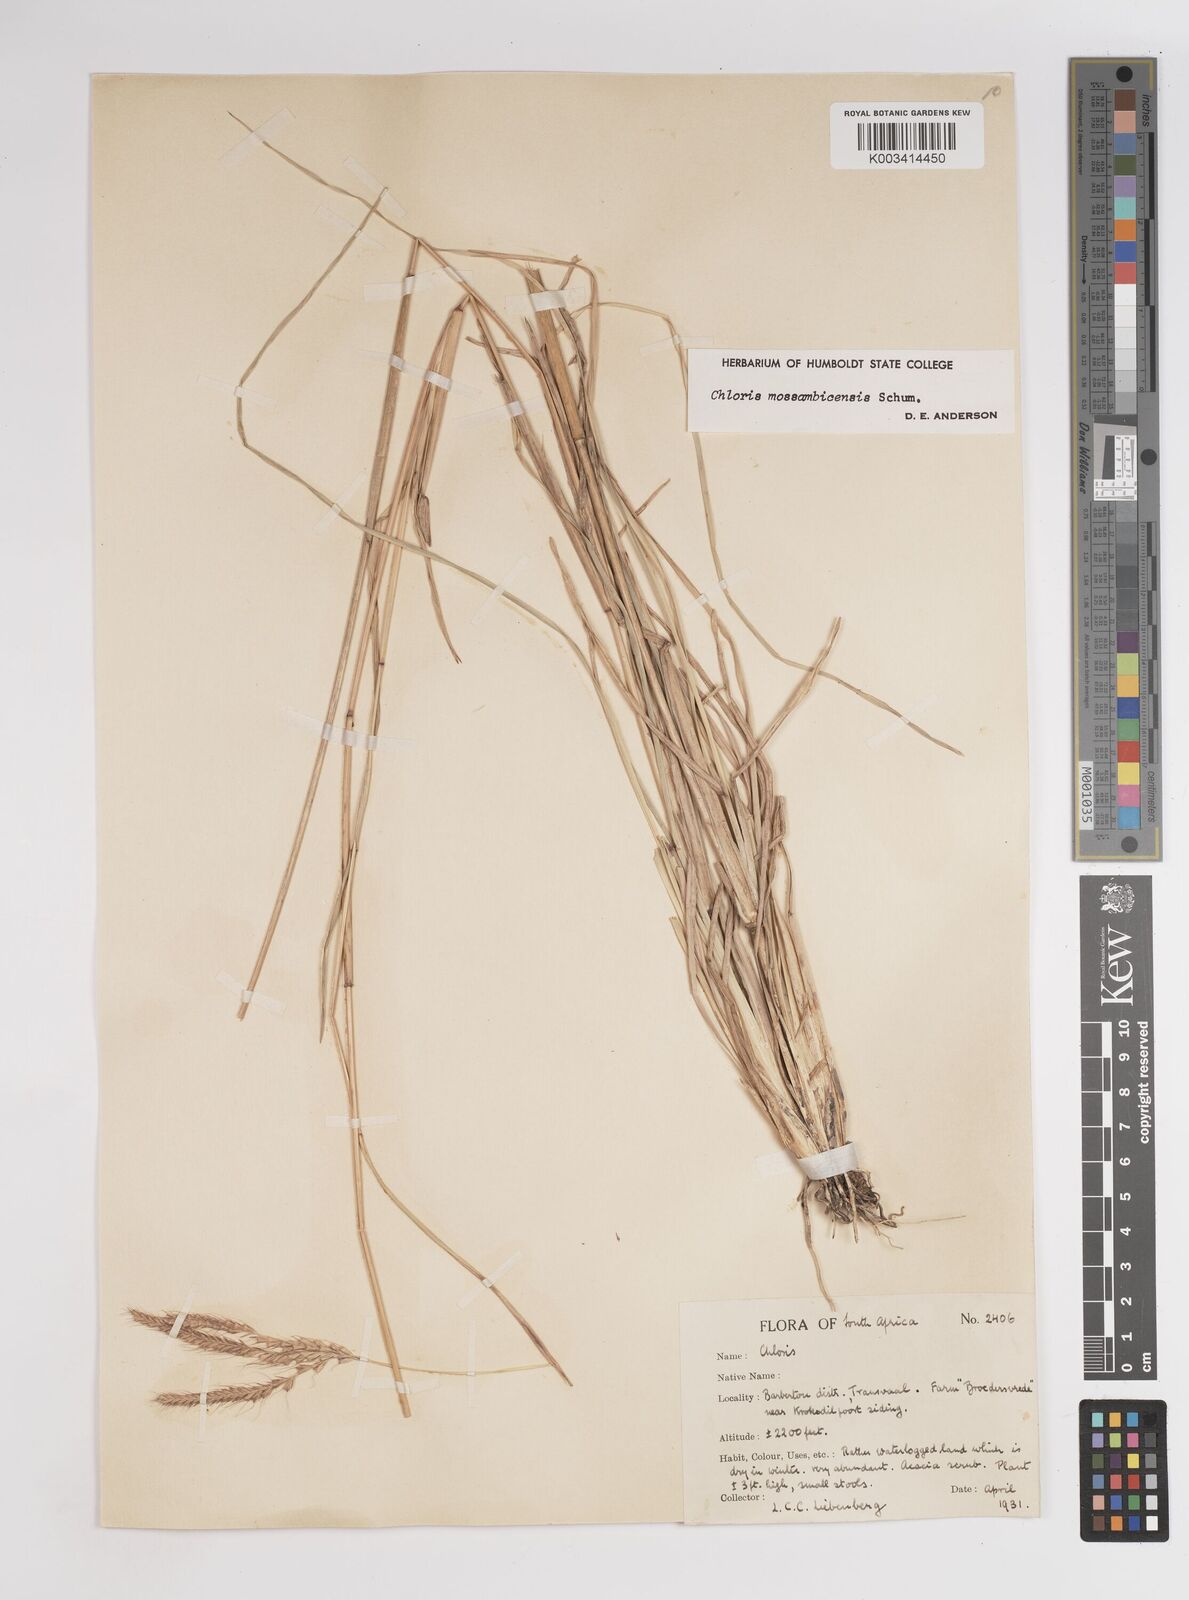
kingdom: Plantae
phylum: Tracheophyta
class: Liliopsida
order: Poales
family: Poaceae
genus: Chloris
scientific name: Chloris mossambicensis
